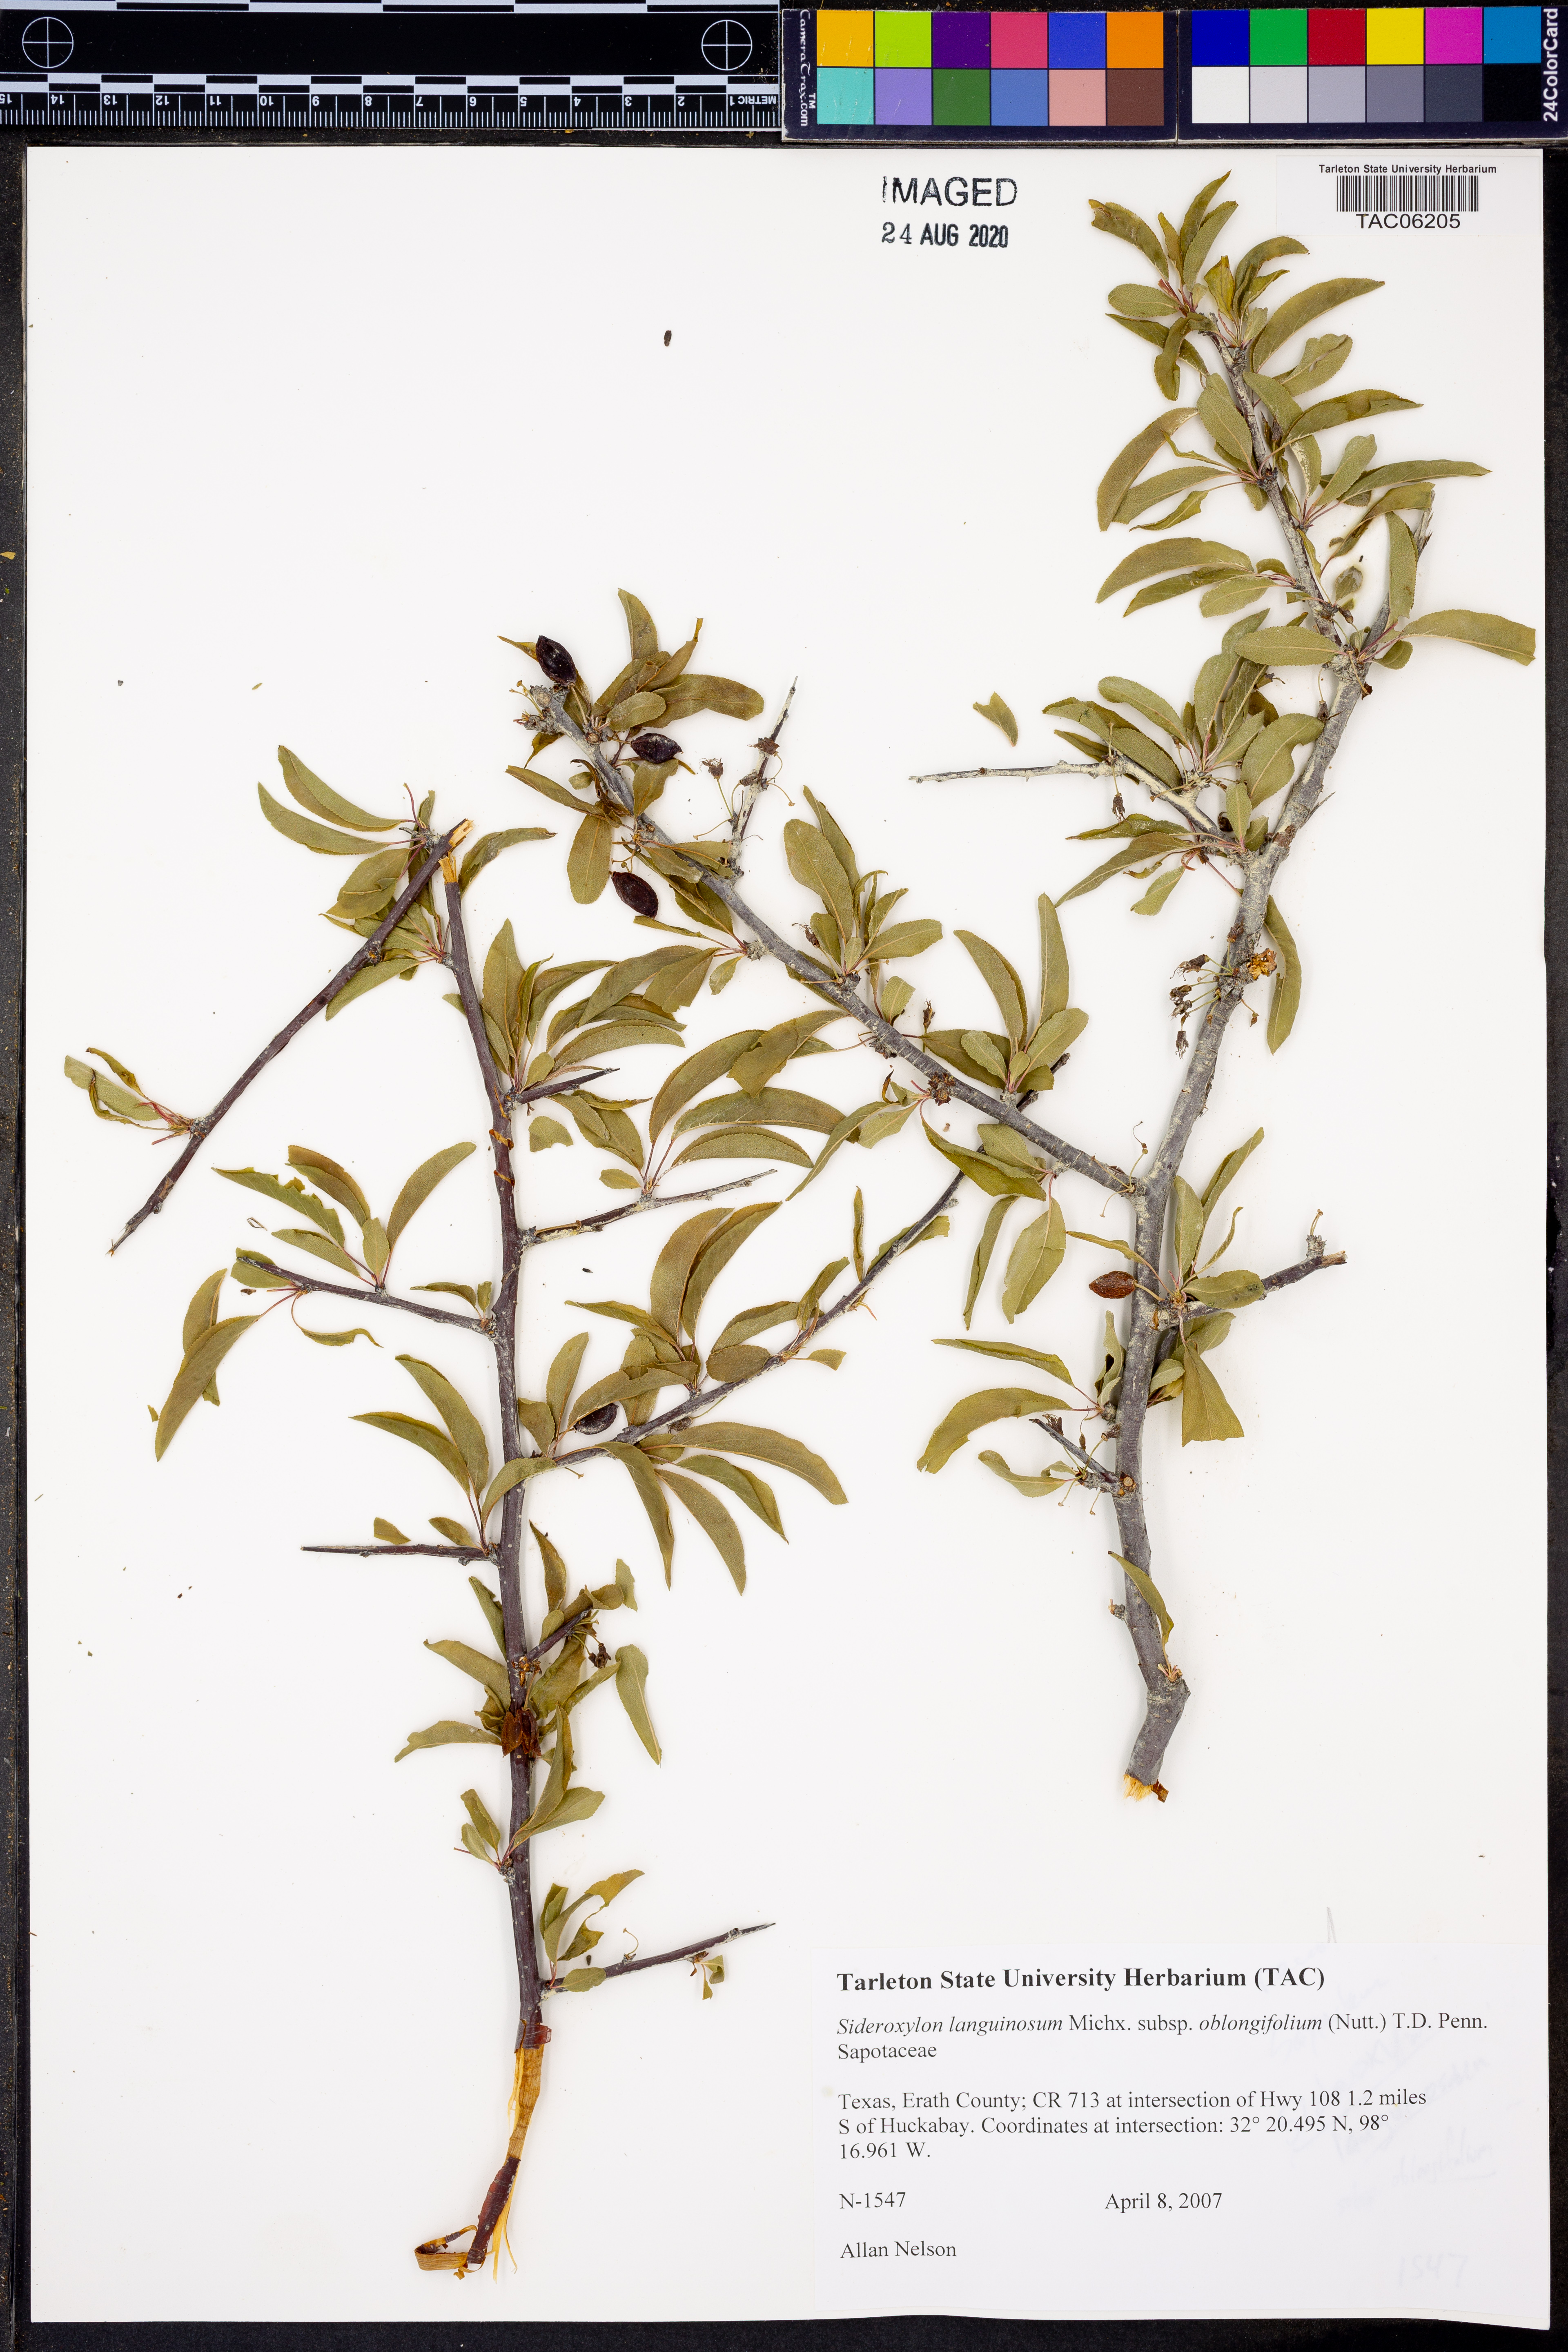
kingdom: Plantae
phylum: Tracheophyta
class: Magnoliopsida
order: Ericales
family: Sapotaceae
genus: Sideroxylon
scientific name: Sideroxylon lanuginosum
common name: Chittamwood
